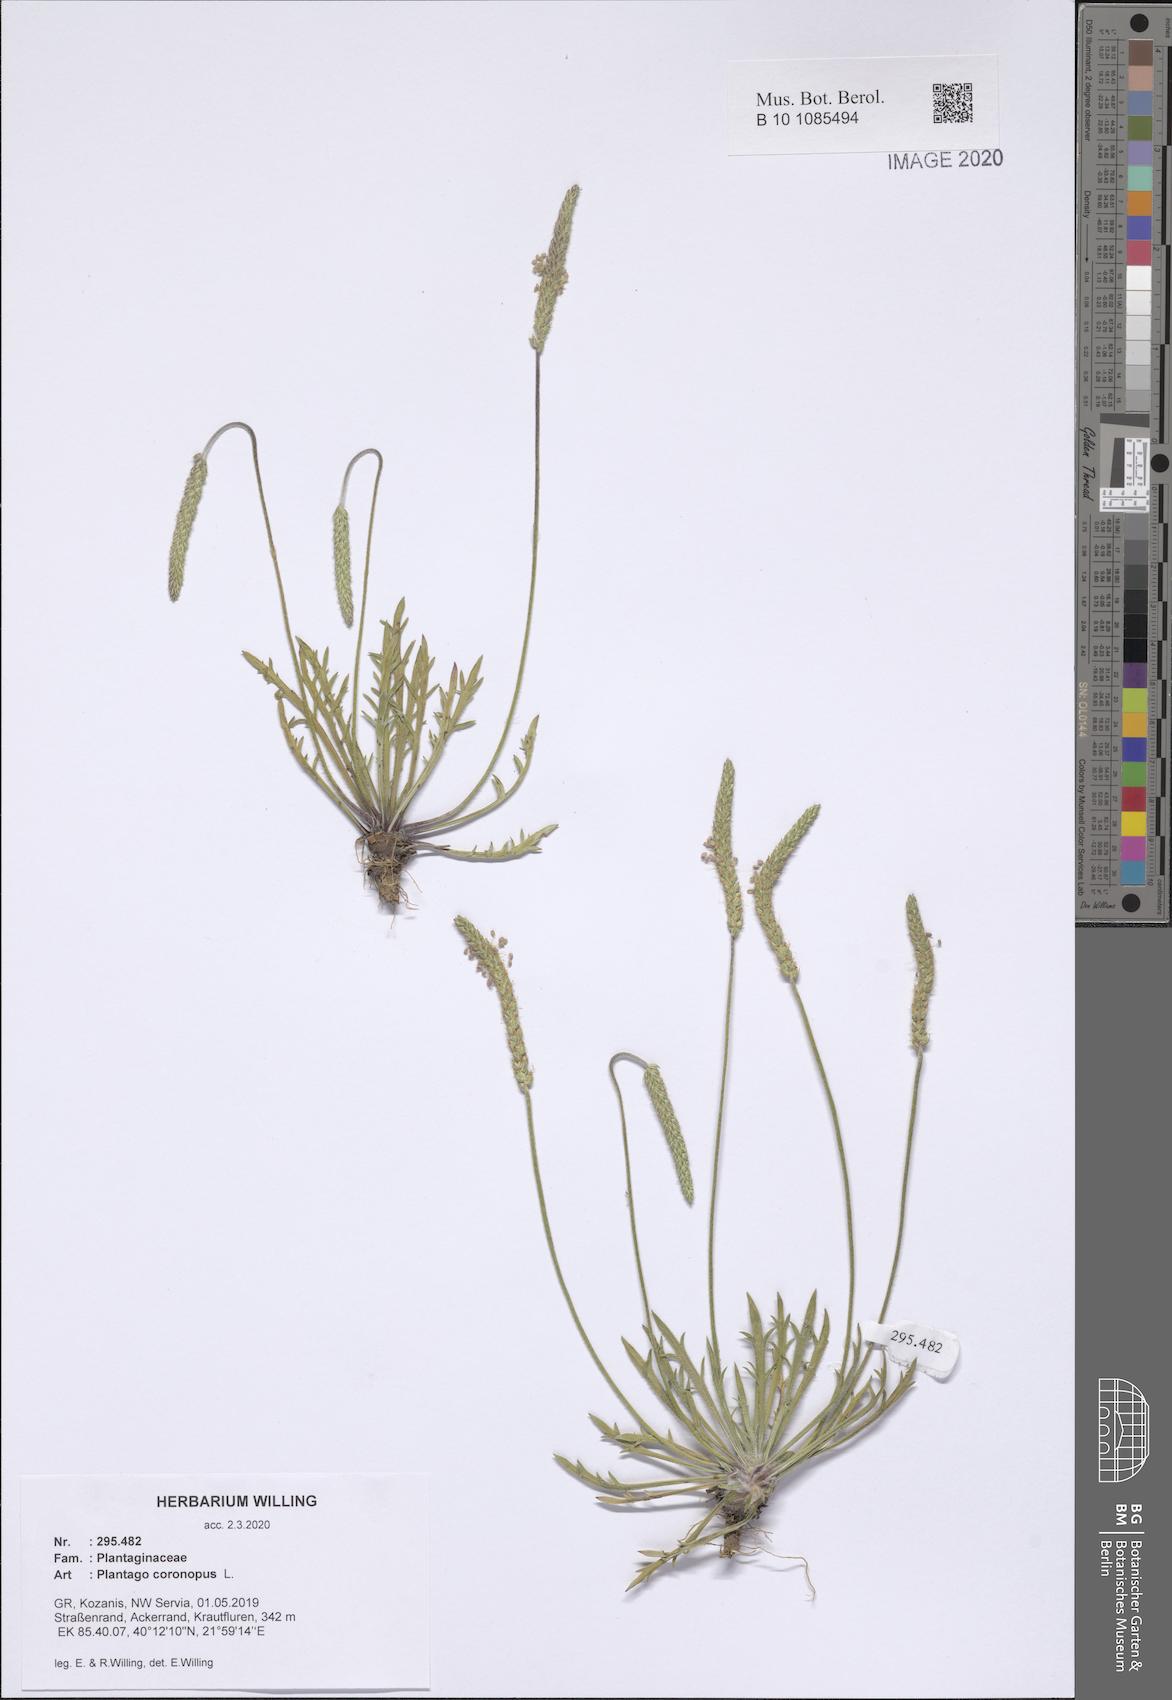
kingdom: Plantae
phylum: Tracheophyta
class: Magnoliopsida
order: Lamiales
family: Plantaginaceae
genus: Plantago
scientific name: Plantago coronopus
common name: Buck's-horn plantain
